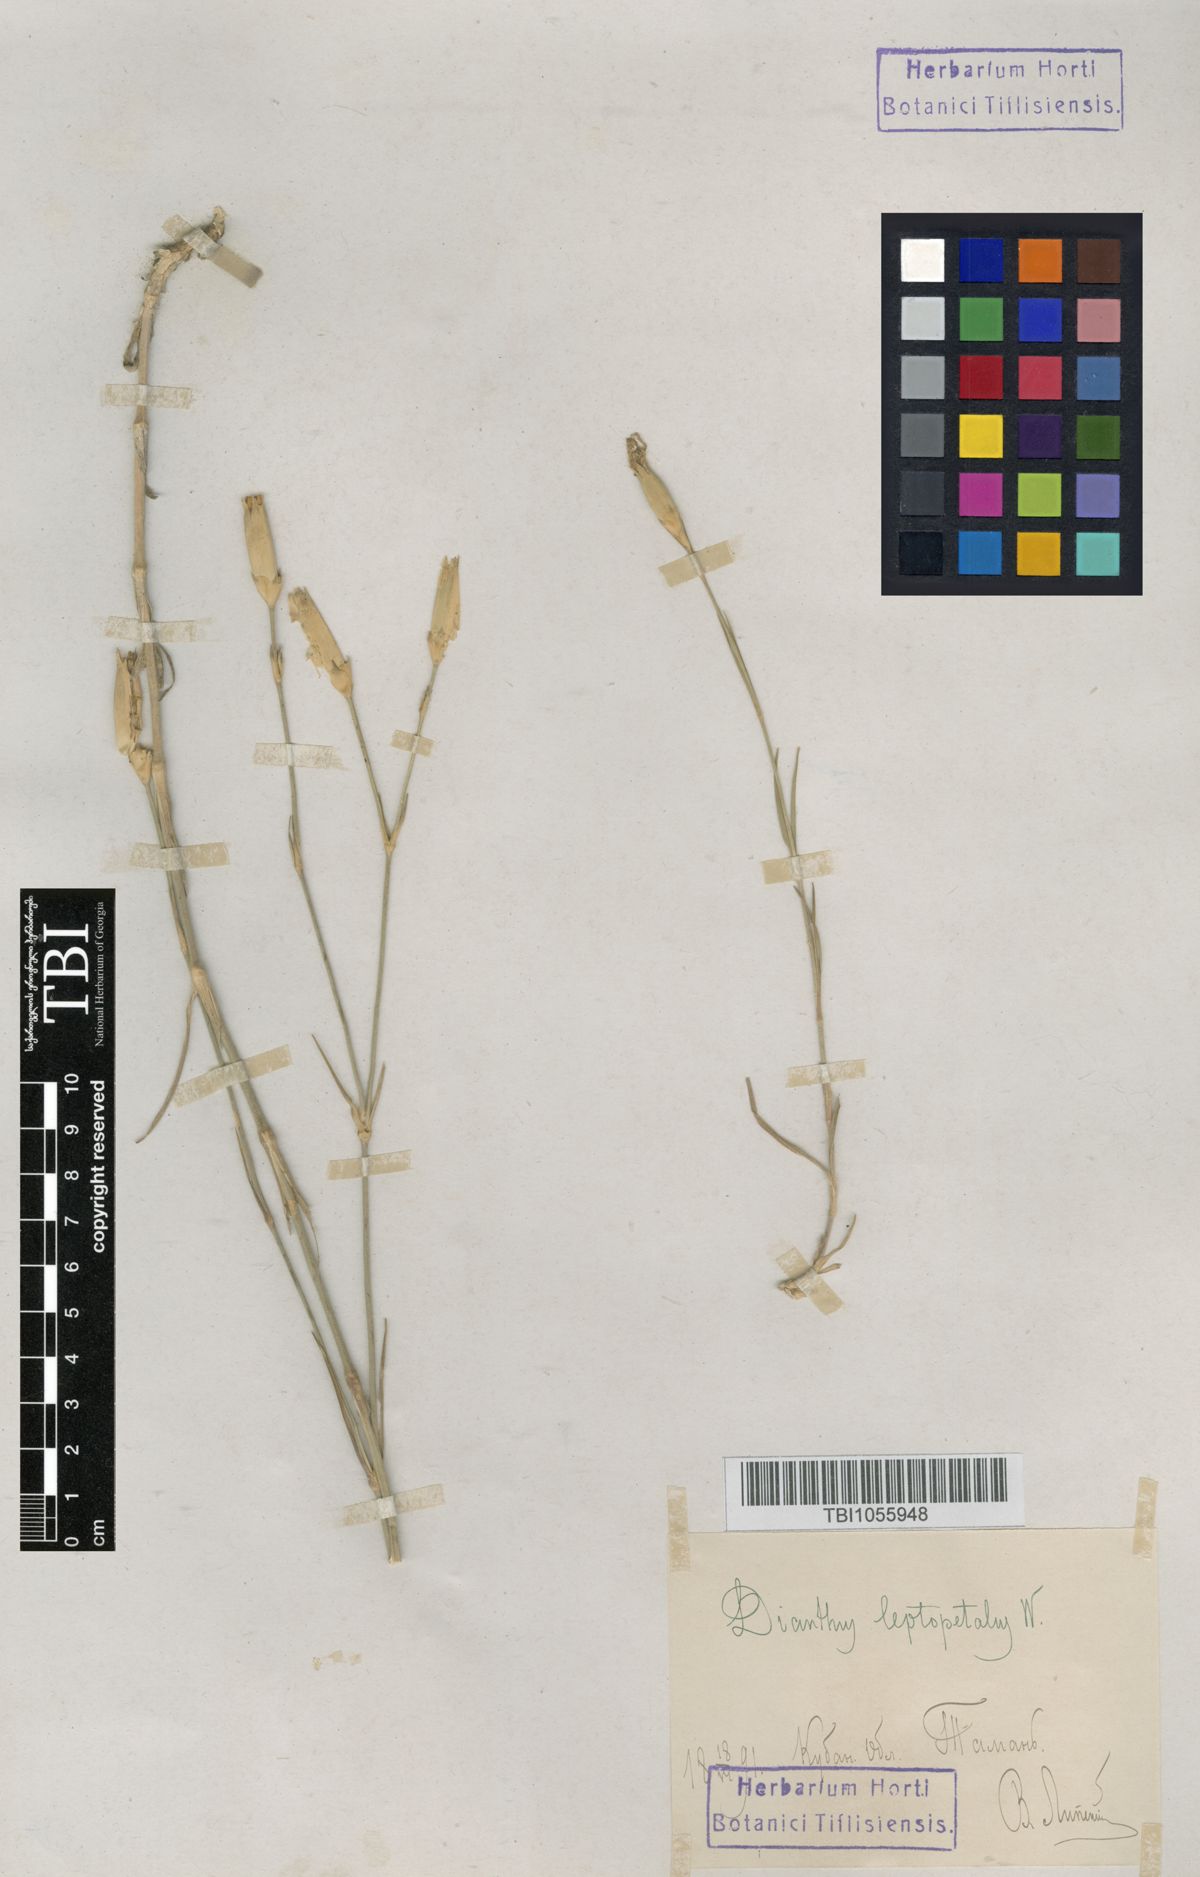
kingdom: Plantae
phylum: Tracheophyta
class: Magnoliopsida
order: Caryophyllales
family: Caryophyllaceae
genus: Dianthus
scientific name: Dianthus leptopetalus
